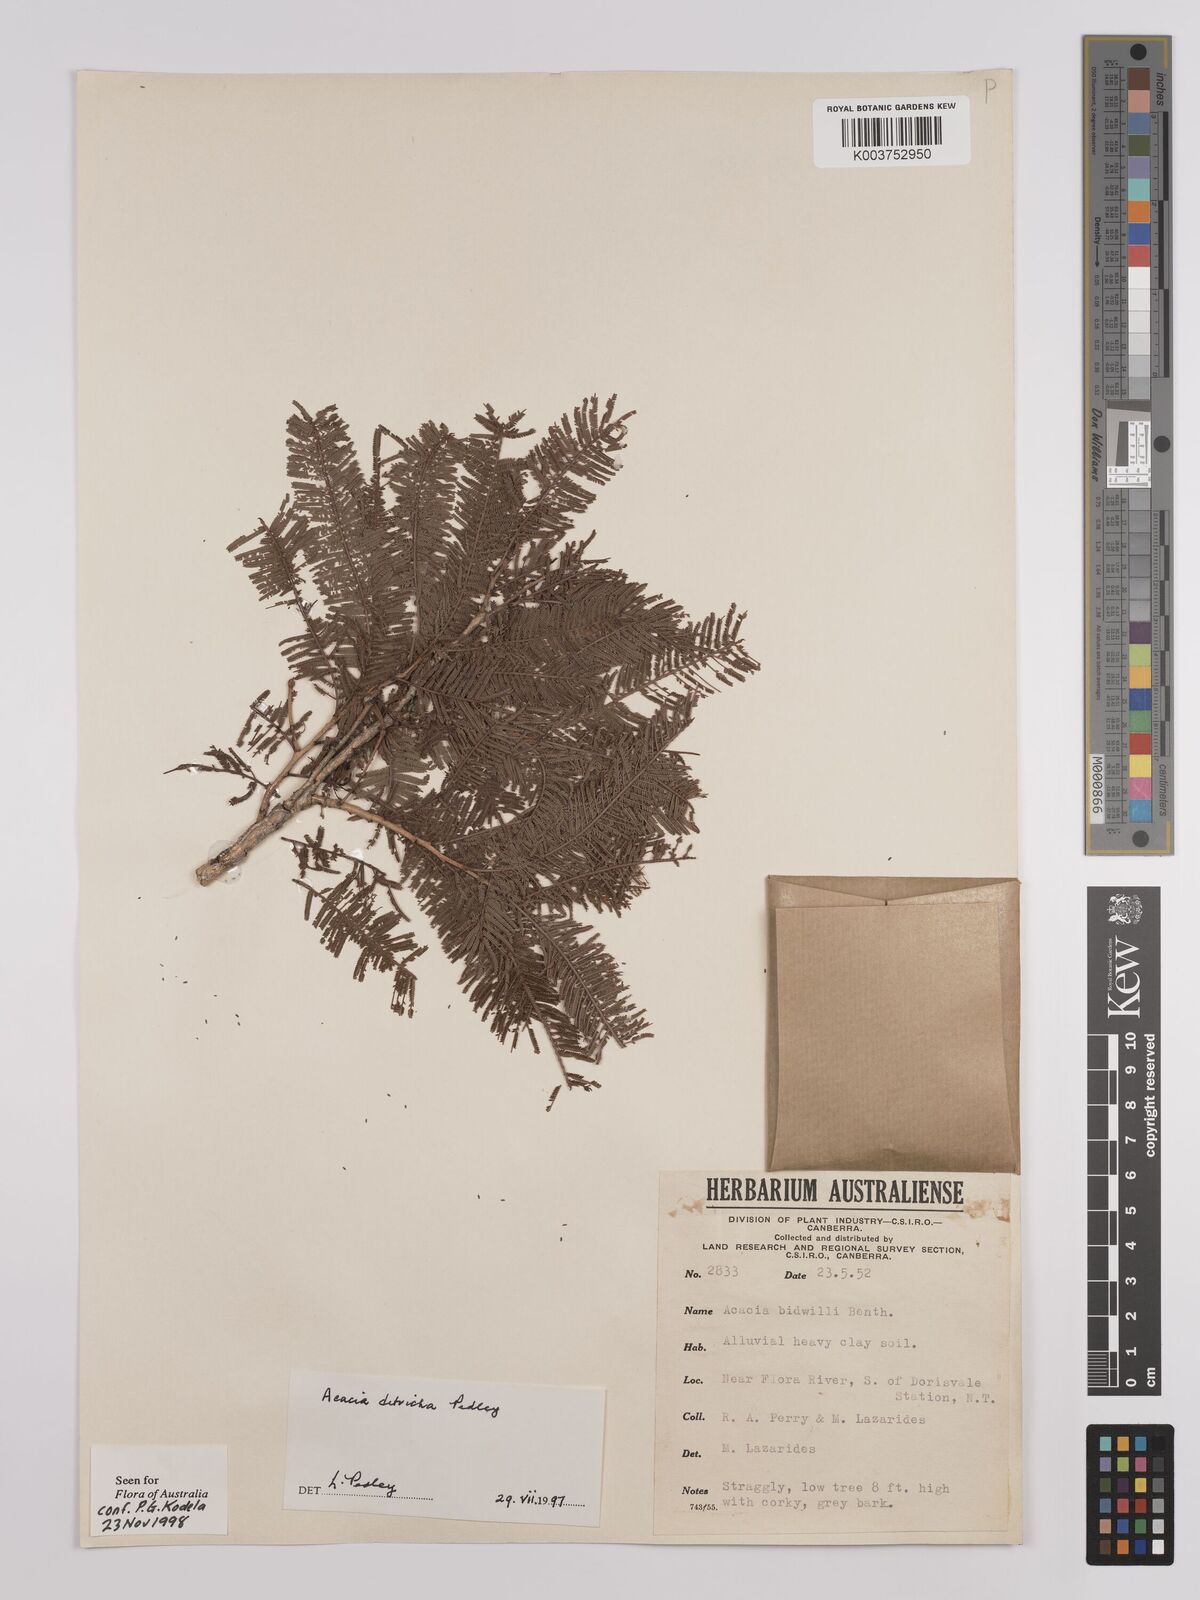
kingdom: Plantae
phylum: Tracheophyta
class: Magnoliopsida
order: Fabales
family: Fabaceae
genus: Vachellia
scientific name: Vachellia ditricha
